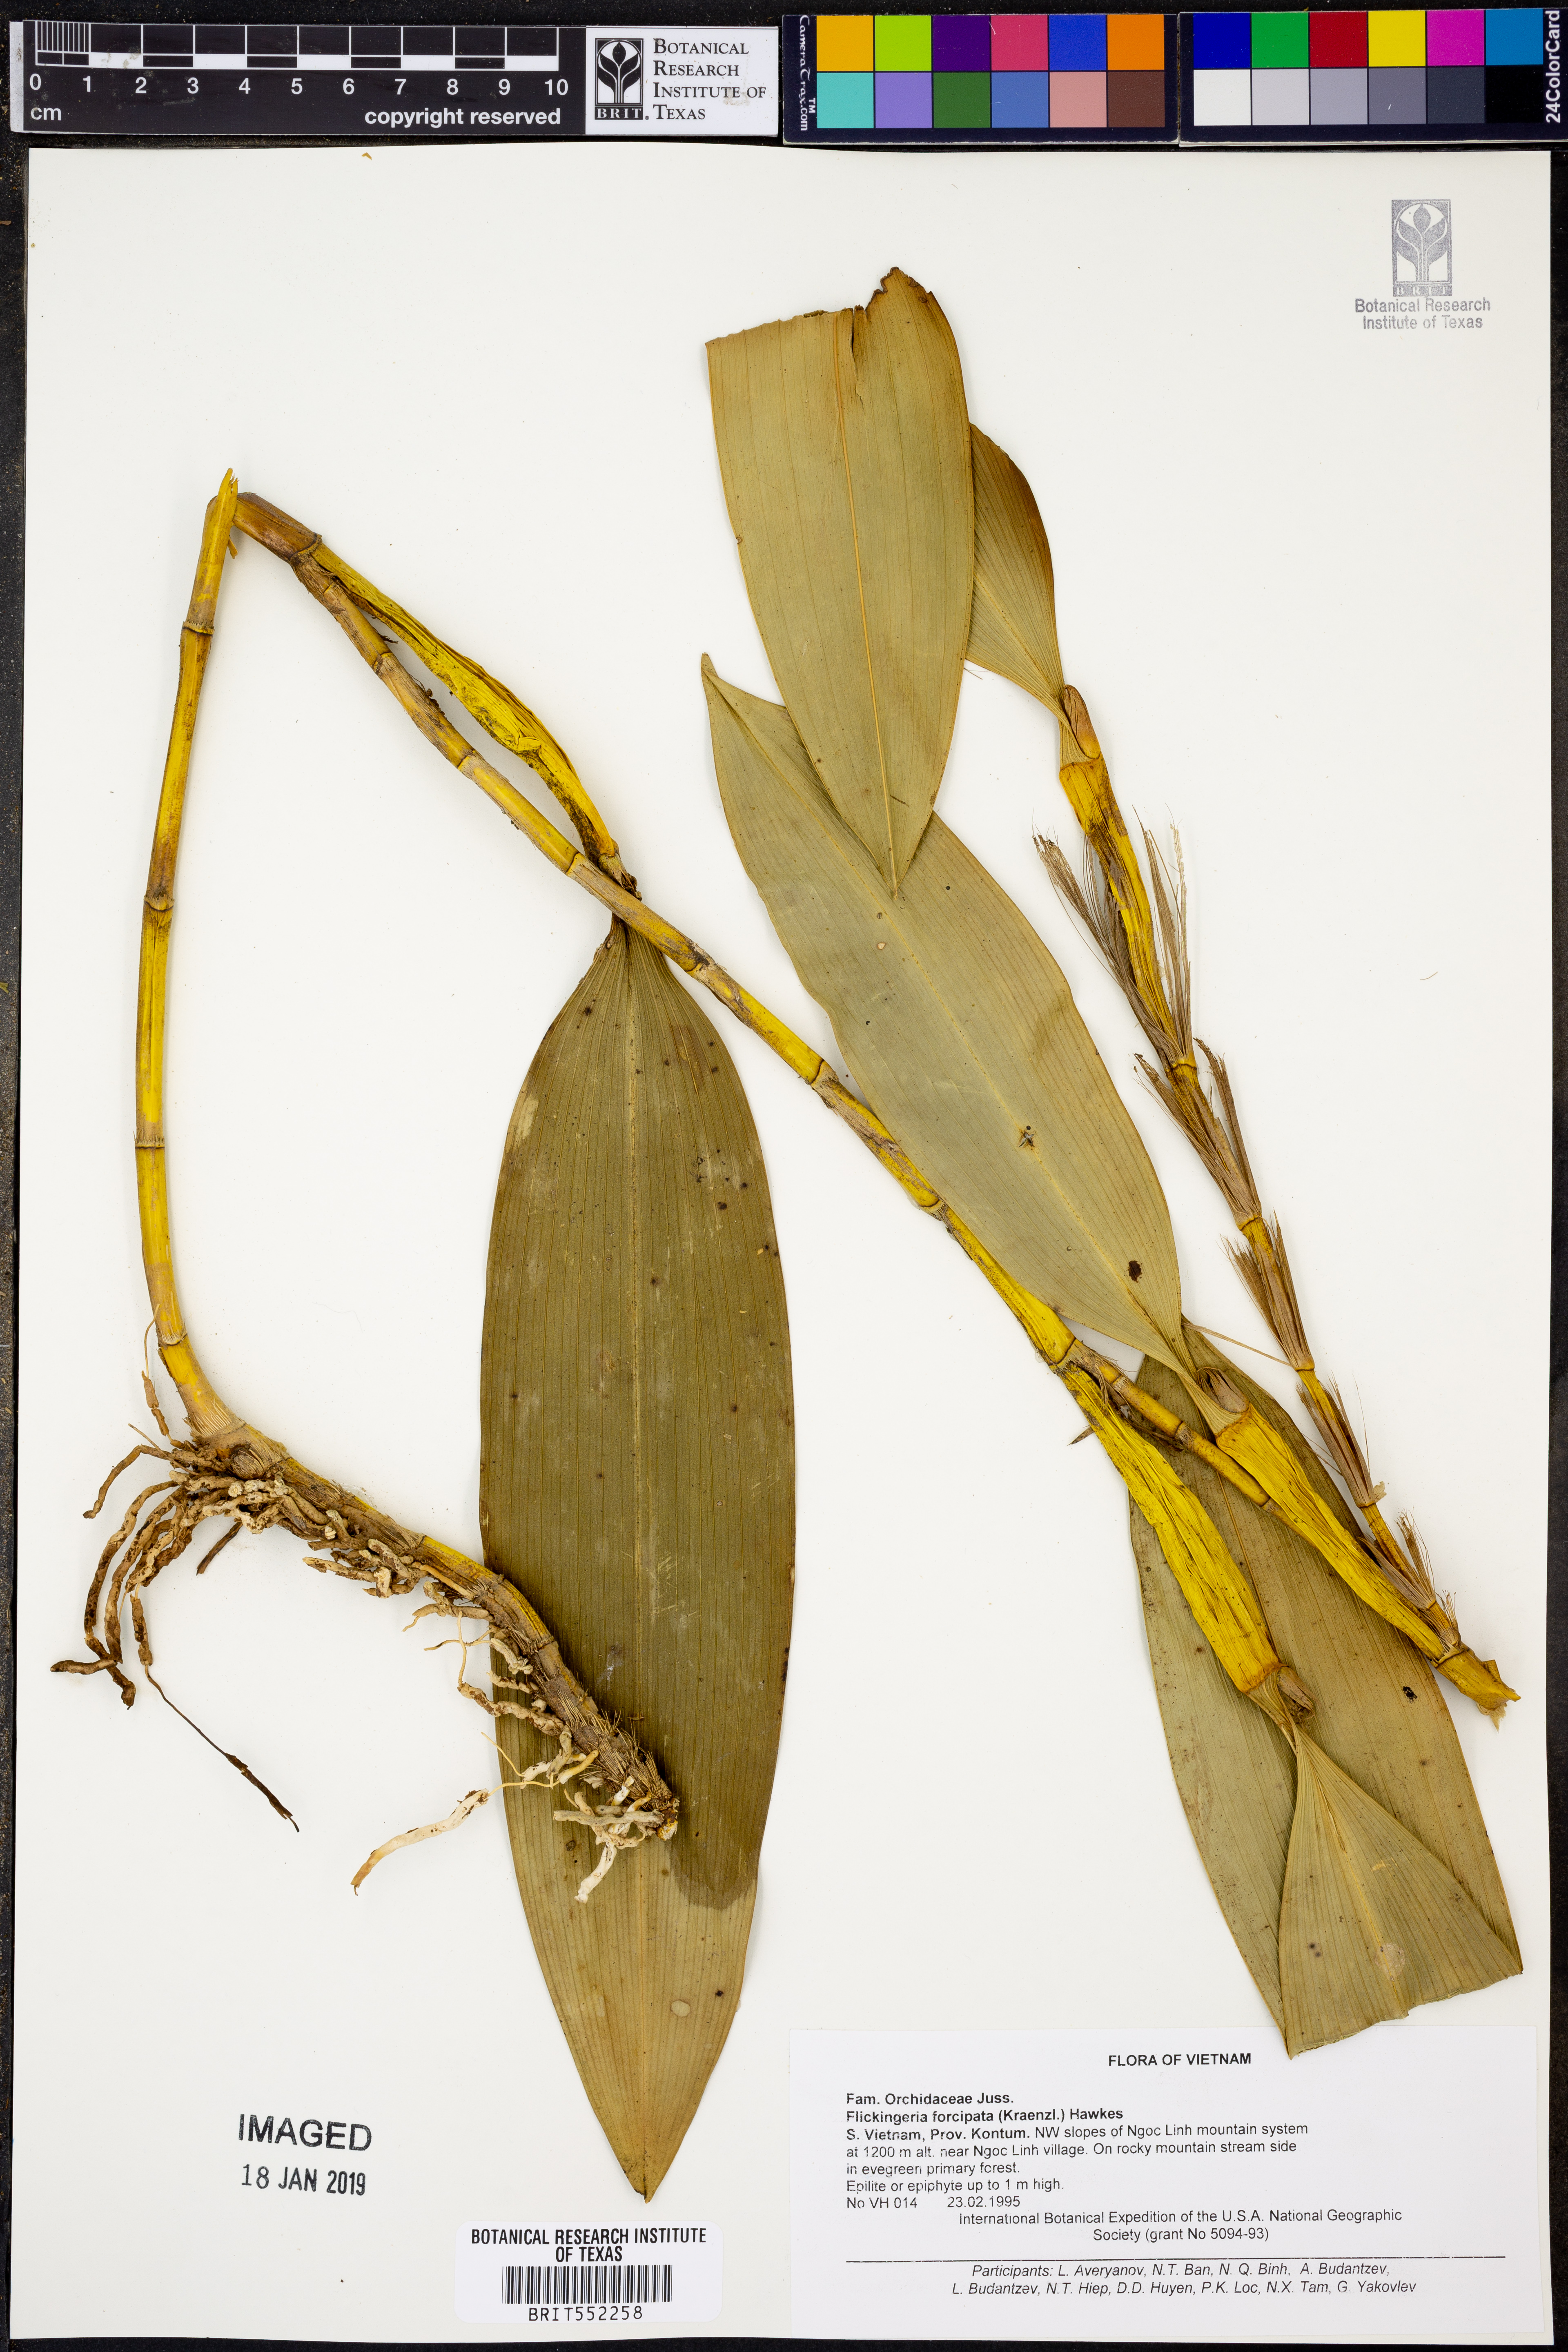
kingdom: Plantae
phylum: Tracheophyta
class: Liliopsida
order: Asparagales
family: Orchidaceae
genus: Dendrobium
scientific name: Dendrobium padangense
